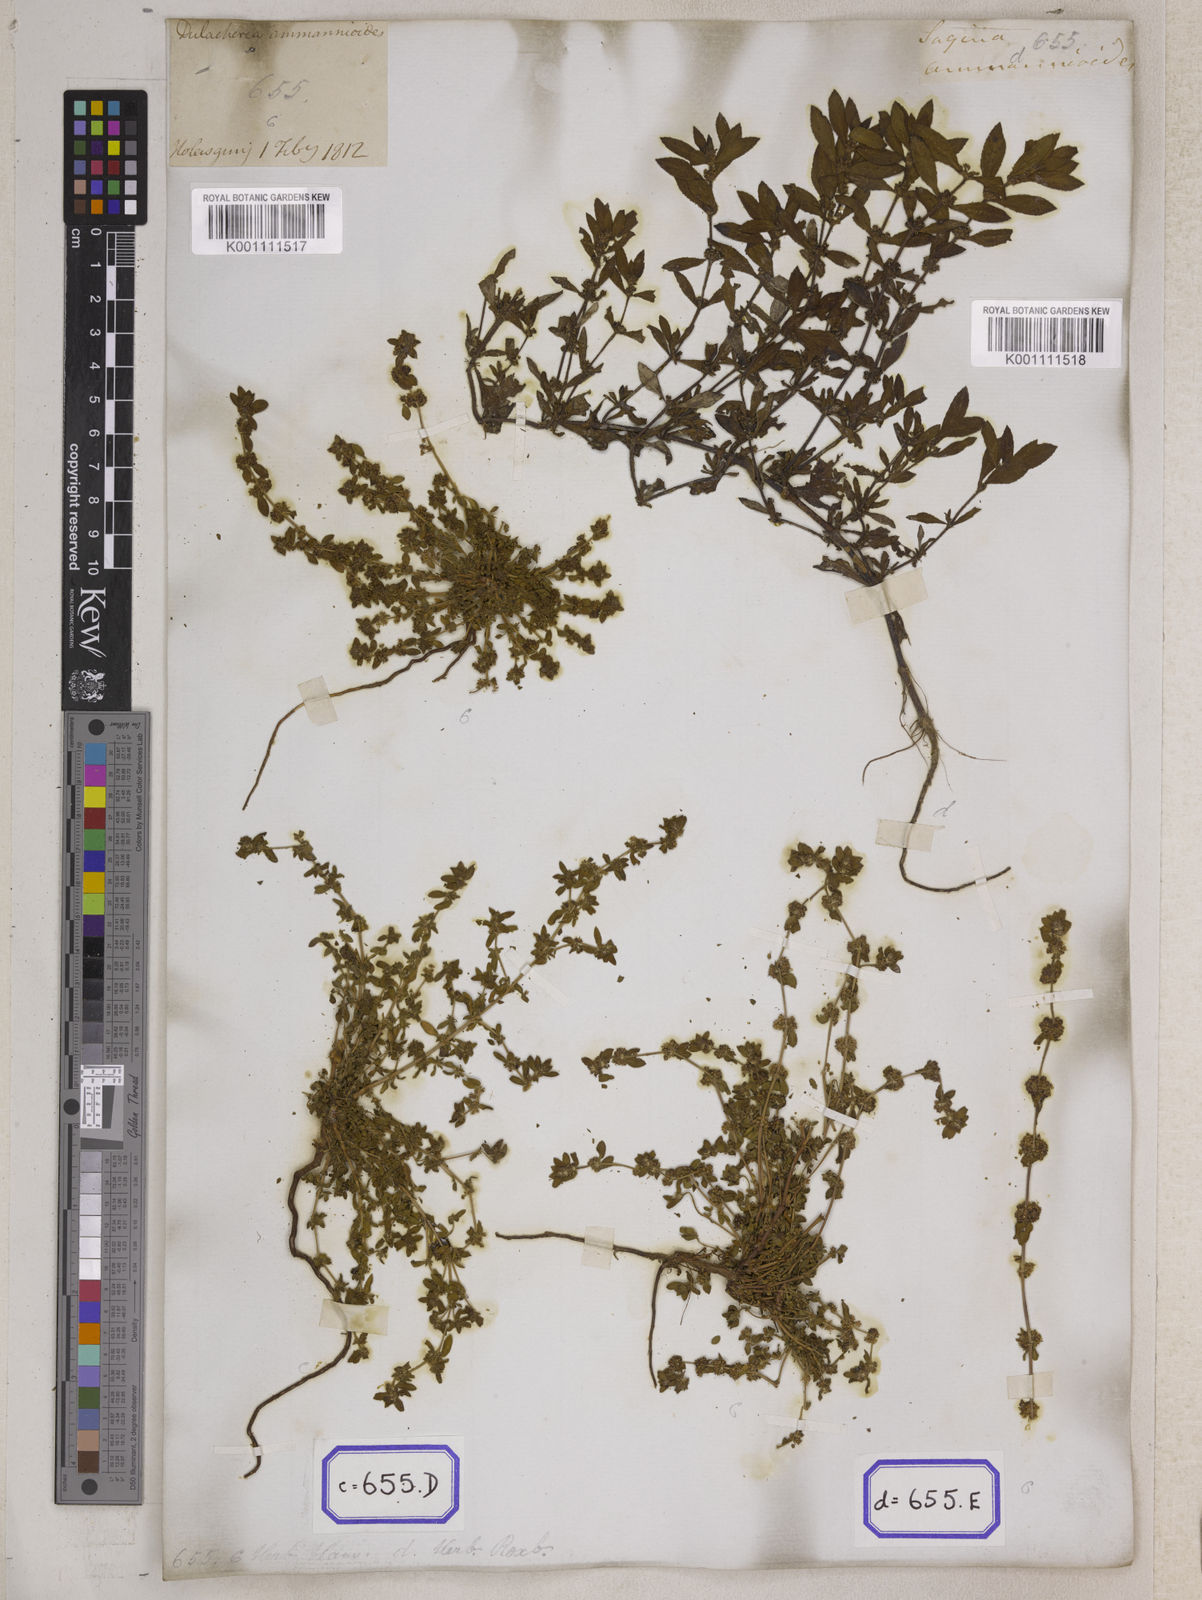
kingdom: Plantae
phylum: Tracheophyta
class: Magnoliopsida
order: Malpighiales
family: Elatinaceae
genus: Bergia
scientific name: Bergia ammannioides
